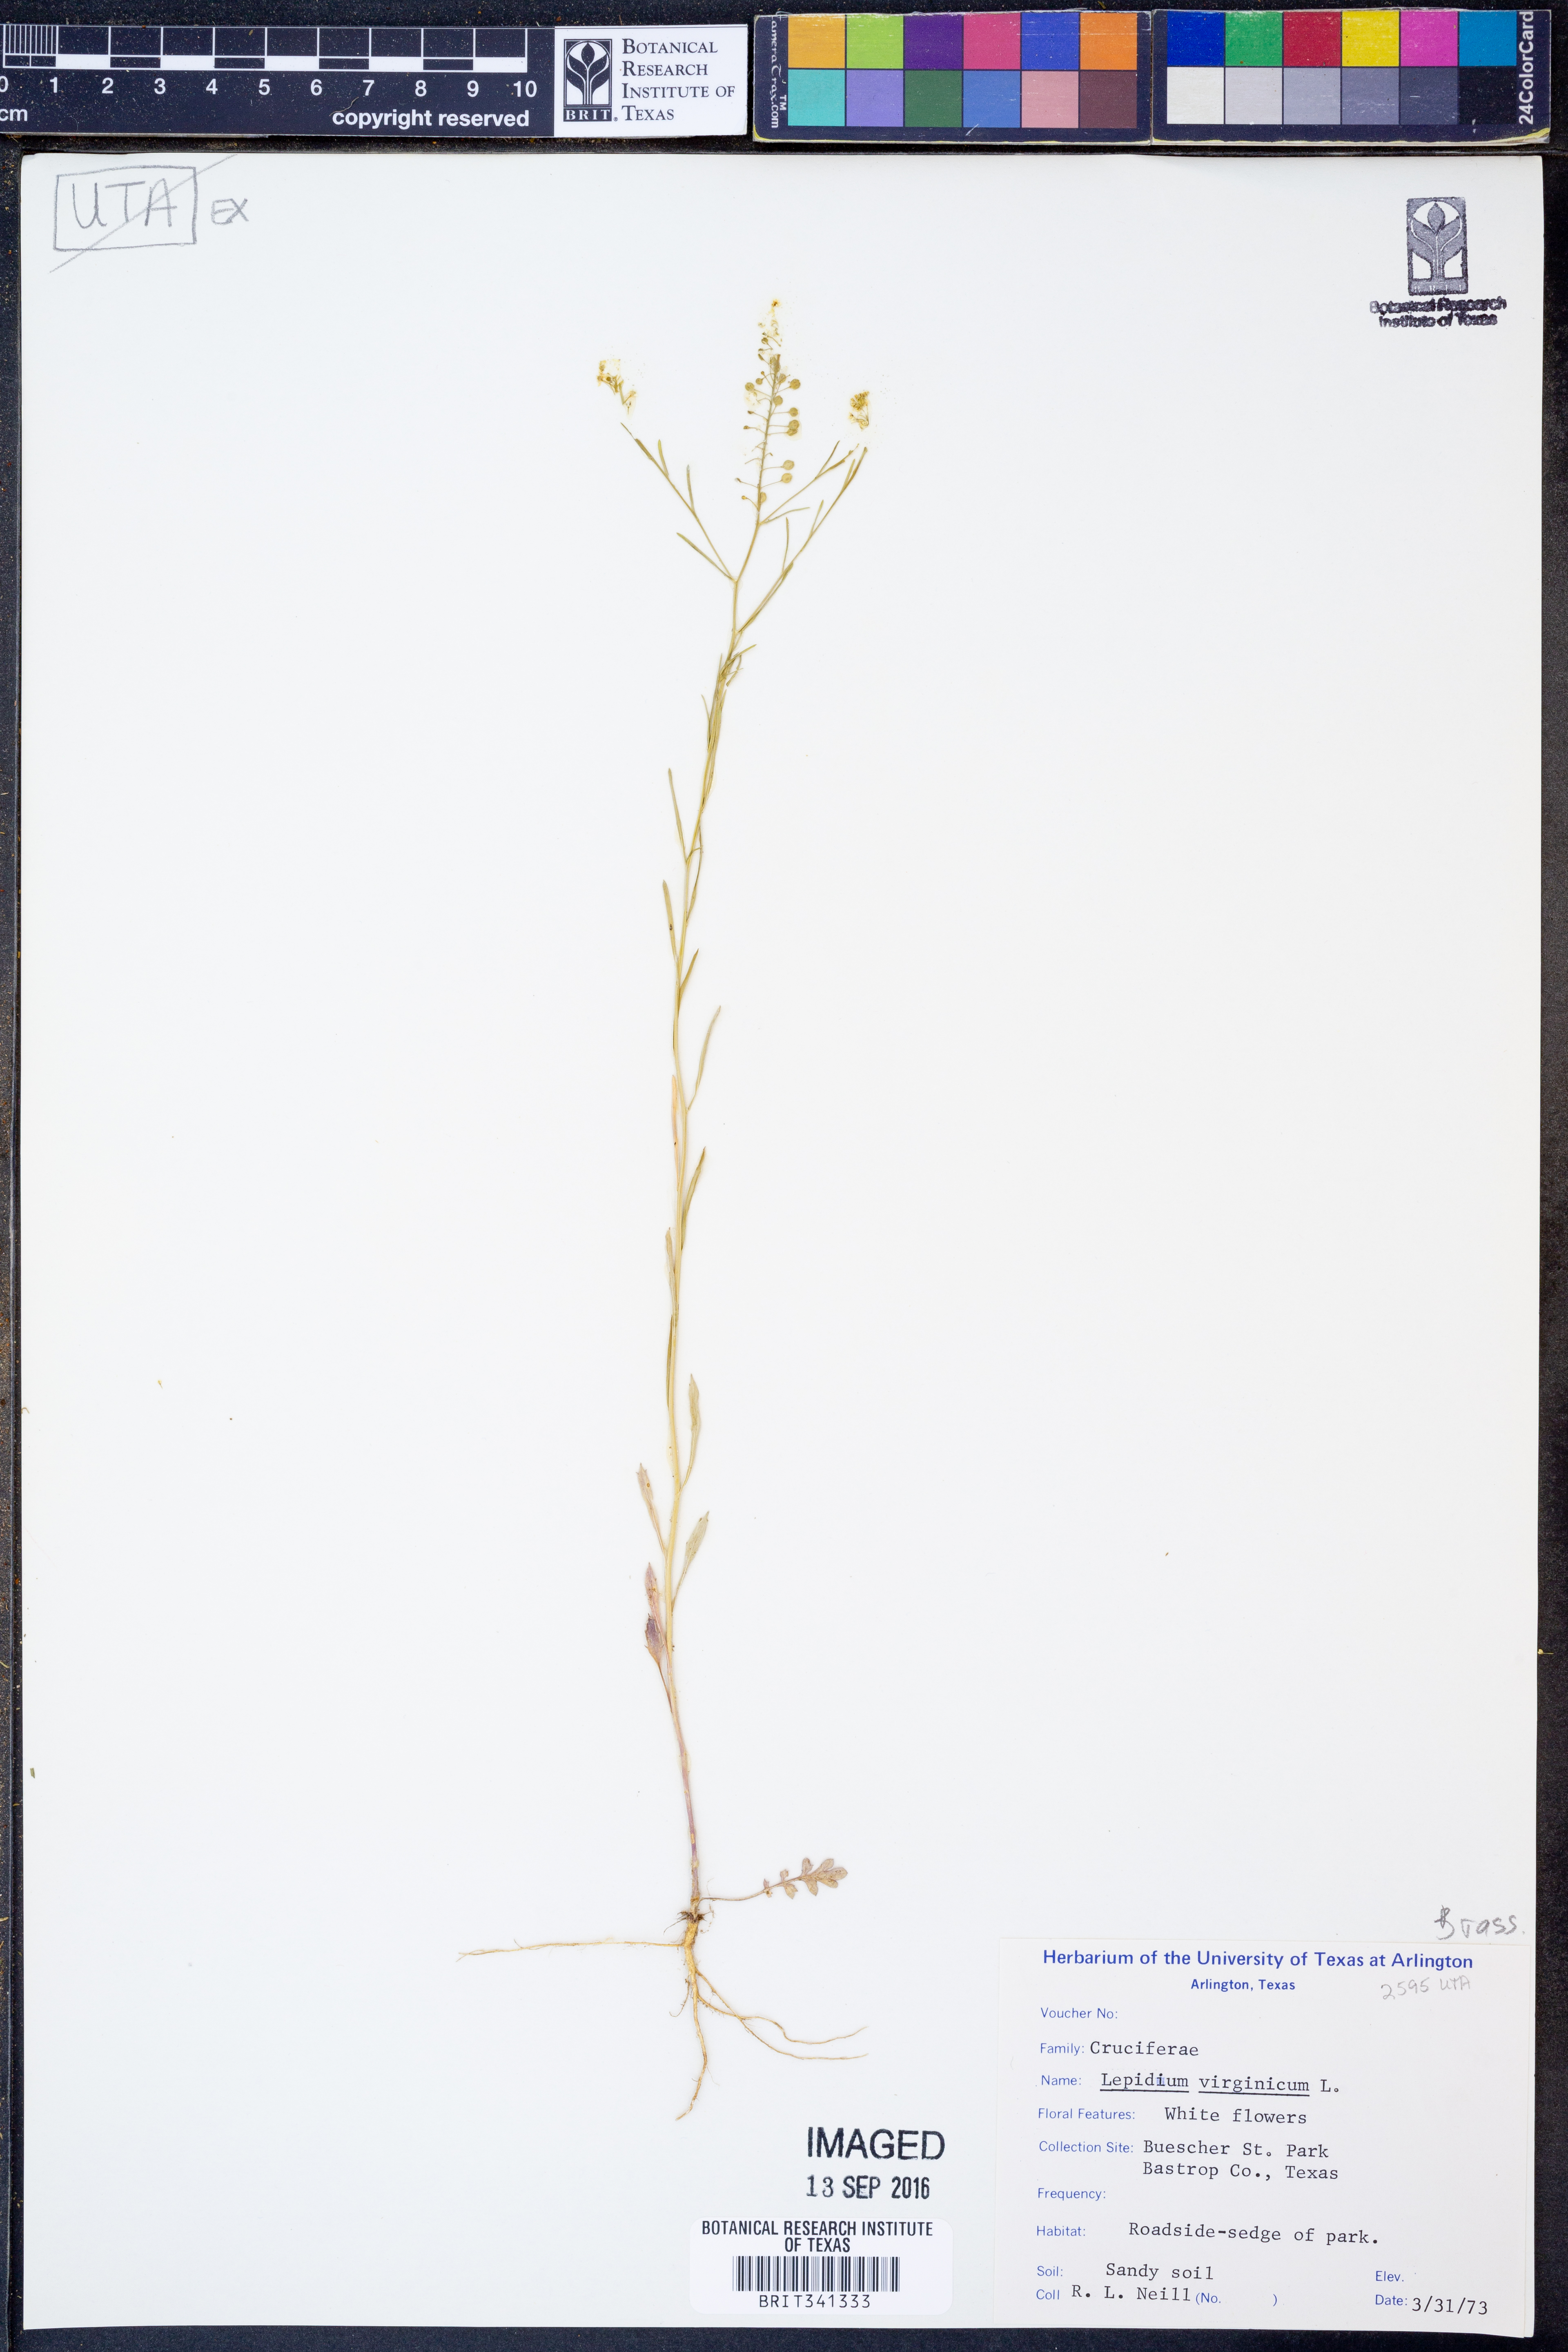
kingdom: Plantae
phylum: Tracheophyta
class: Magnoliopsida
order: Brassicales
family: Brassicaceae
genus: Lepidium
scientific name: Lepidium virginicum
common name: Least pepperwort
